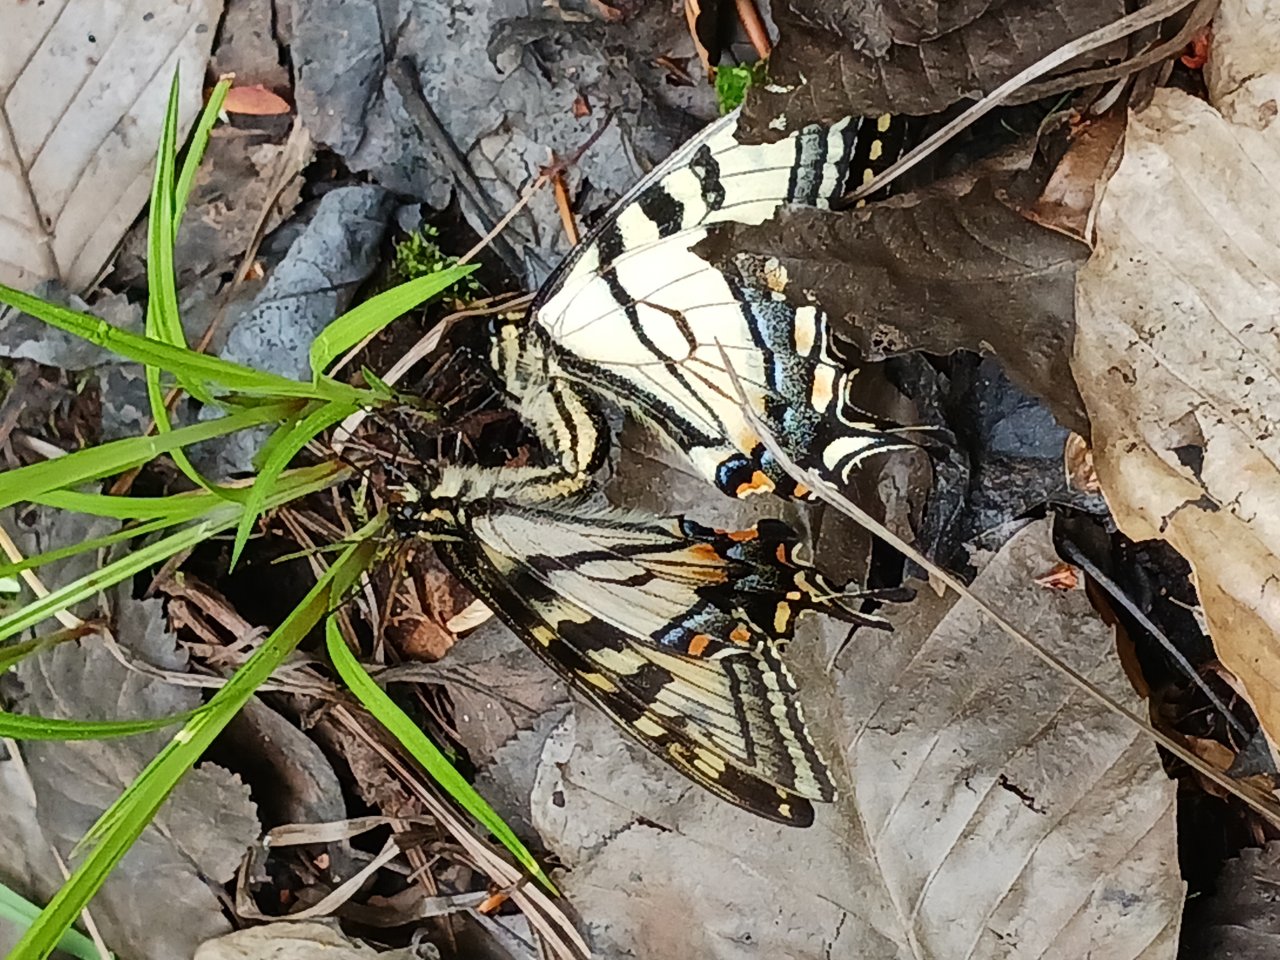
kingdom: Animalia
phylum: Arthropoda
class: Insecta
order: Lepidoptera
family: Papilionidae
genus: Pterourus
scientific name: Pterourus canadensis
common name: Canadian Tiger Swallowtail
